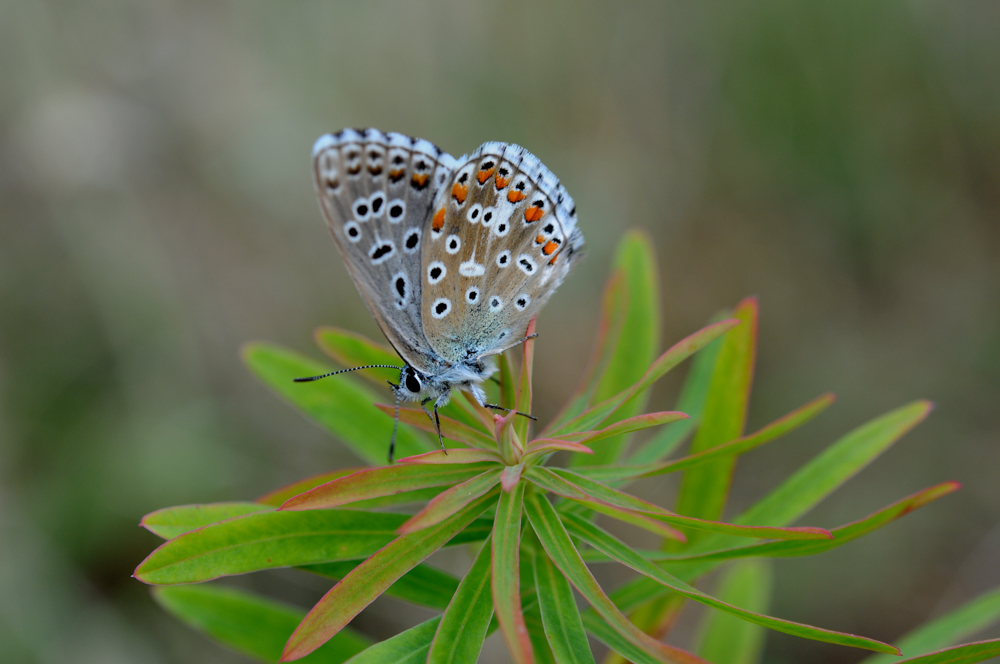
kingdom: Animalia
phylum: Arthropoda
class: Insecta
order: Lepidoptera
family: Lycaenidae
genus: Polyommatus
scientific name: Polyommatus icarus
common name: Common blue
